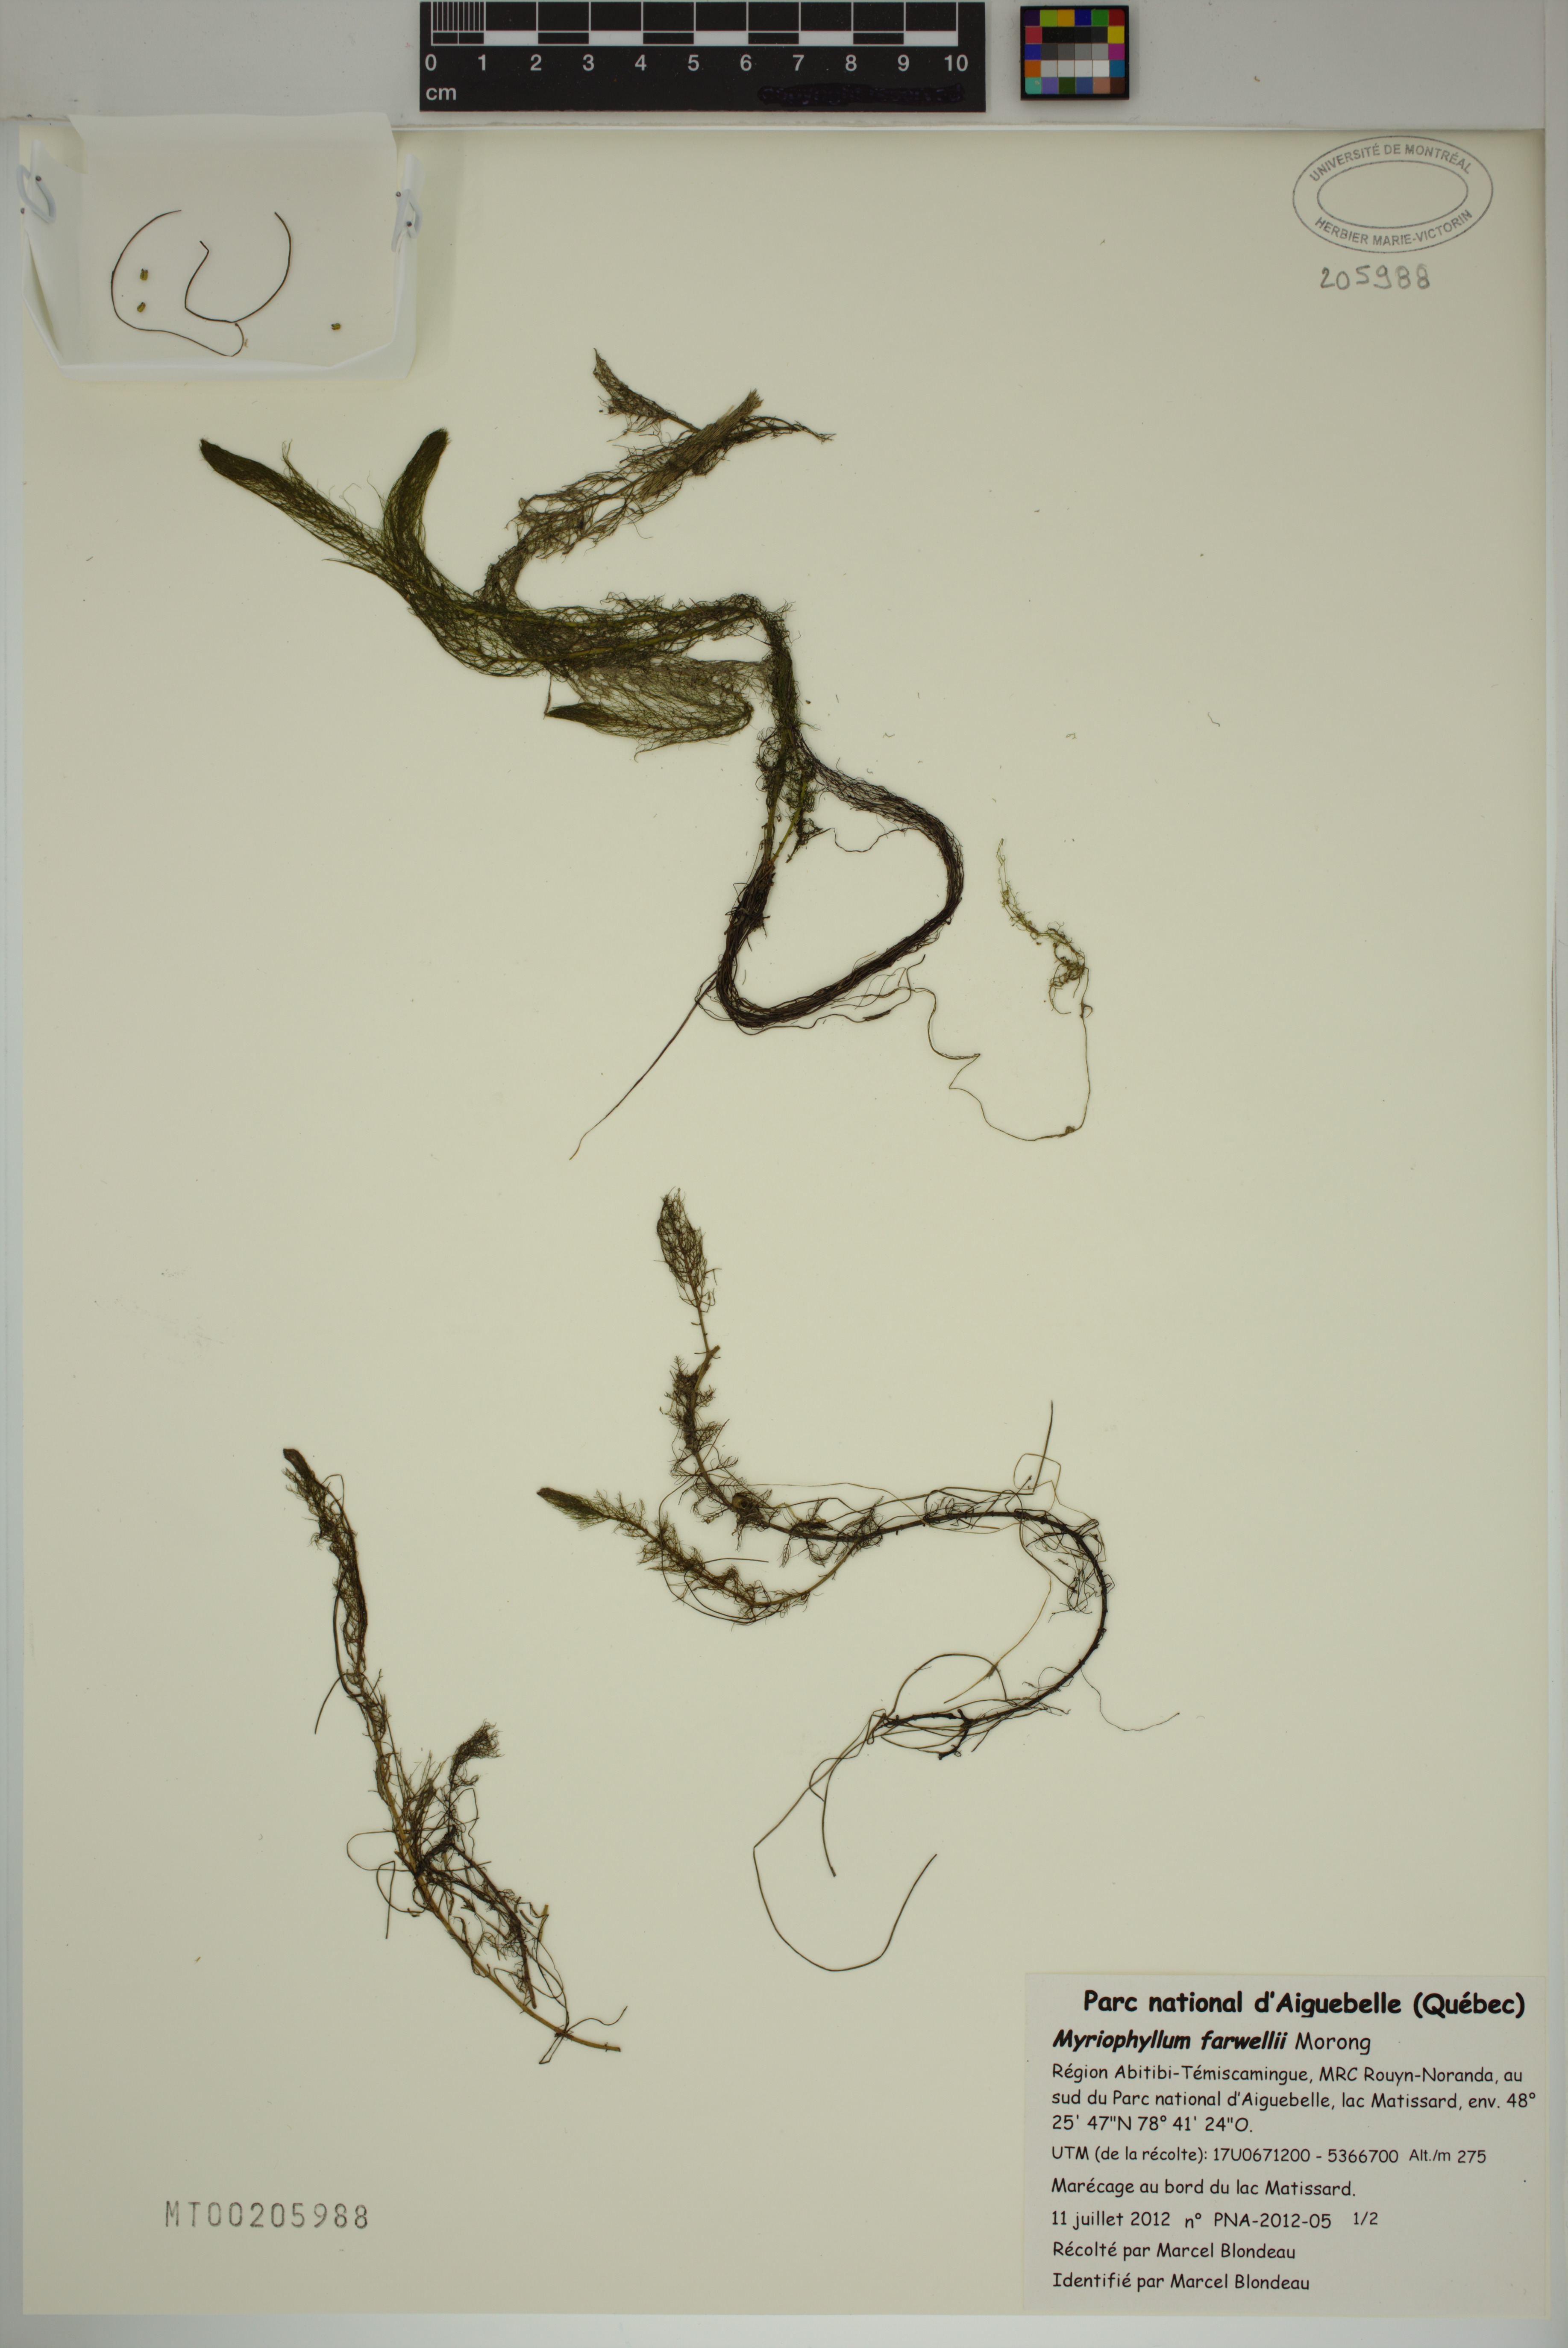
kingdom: Plantae
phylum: Tracheophyta
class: Magnoliopsida
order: Saxifragales
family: Haloragaceae
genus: Myriophyllum
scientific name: Myriophyllum farwellii
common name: Farwell's water-milfoil
